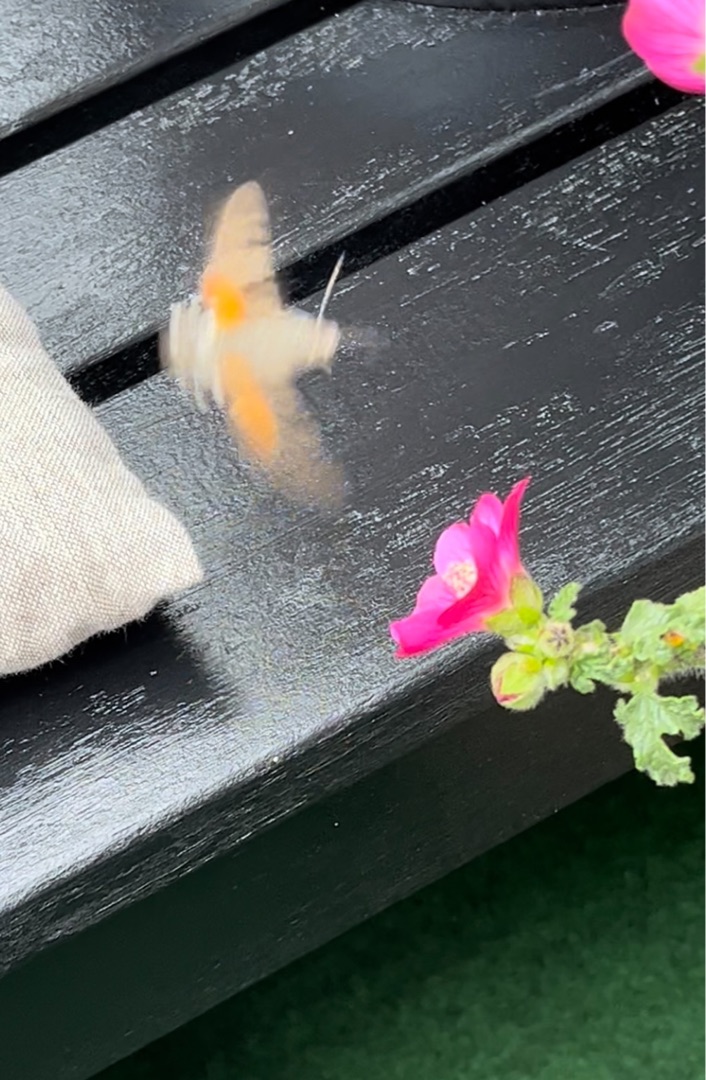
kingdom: Animalia
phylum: Arthropoda
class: Insecta
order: Lepidoptera
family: Sphingidae
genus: Macroglossum
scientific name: Macroglossum stellatarum
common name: Duehale
